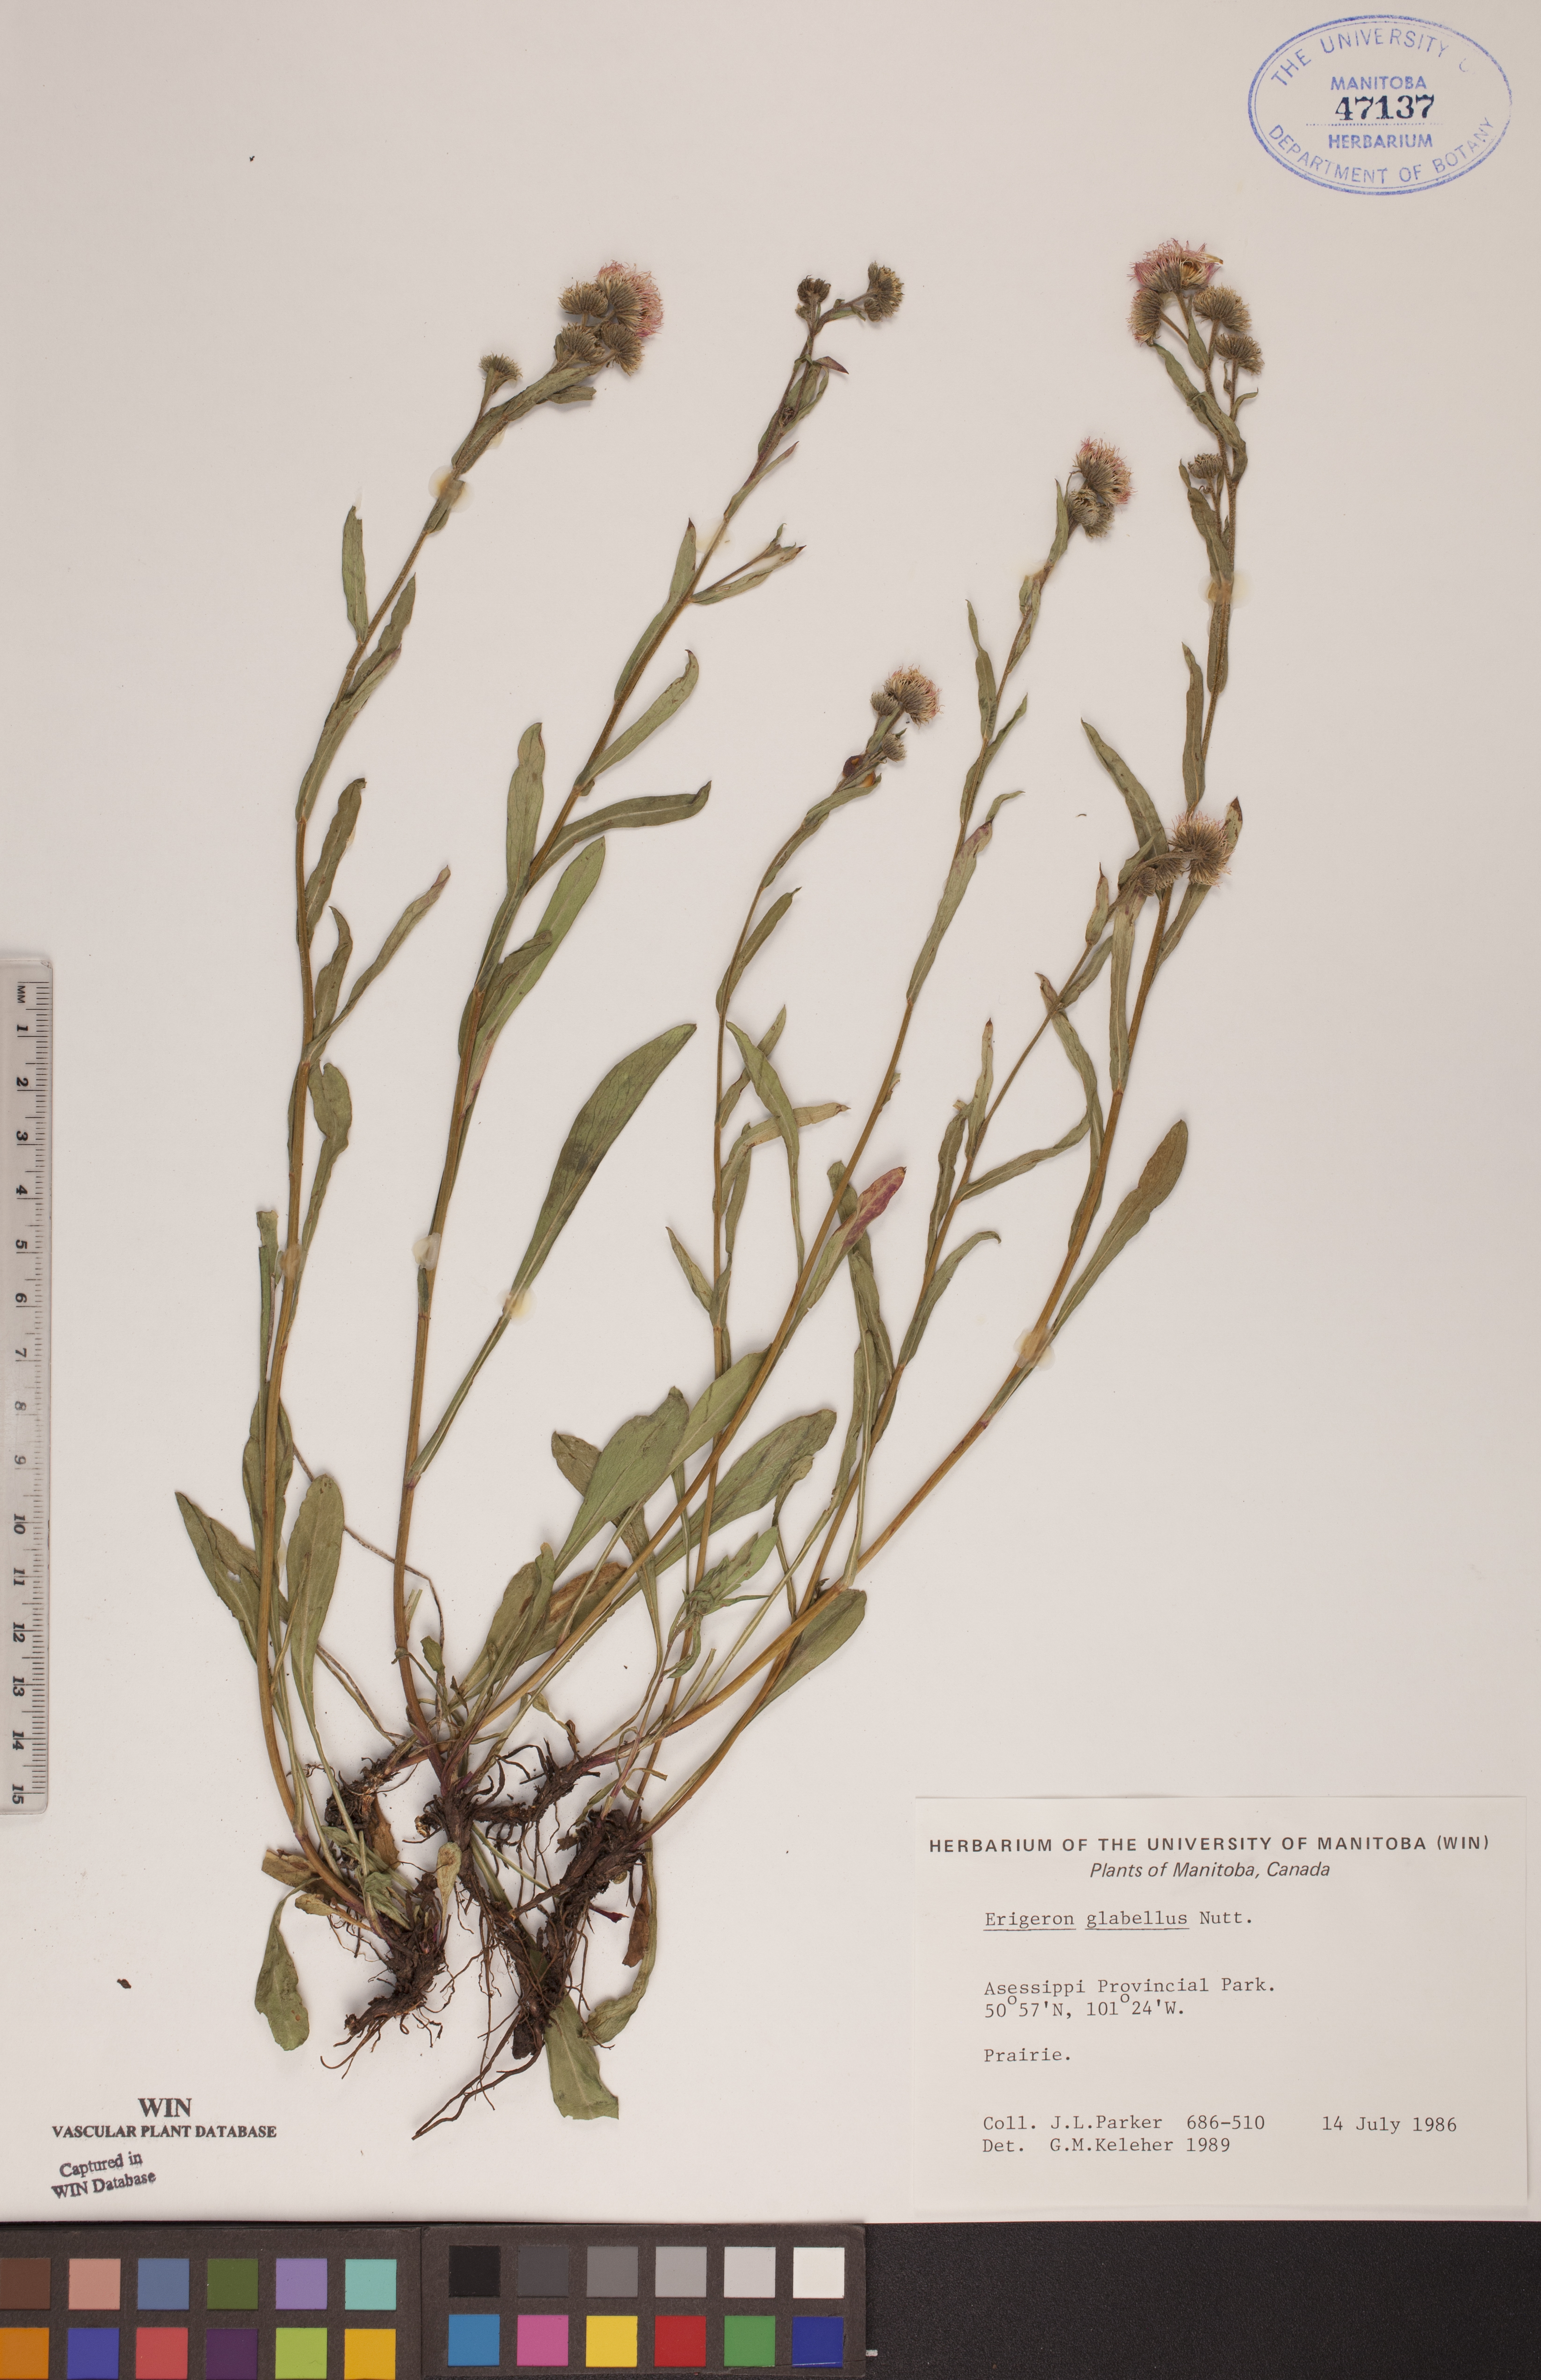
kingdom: Plantae
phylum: Tracheophyta
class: Magnoliopsida
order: Asterales
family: Asteraceae
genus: Erigeron
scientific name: Erigeron glabellus
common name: Smooth fleabane
